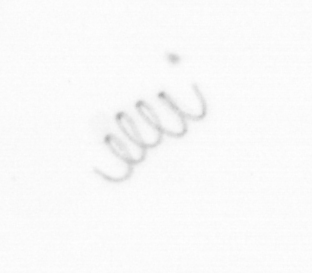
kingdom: Chromista
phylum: Ochrophyta
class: Bacillariophyceae
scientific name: Bacillariophyceae
